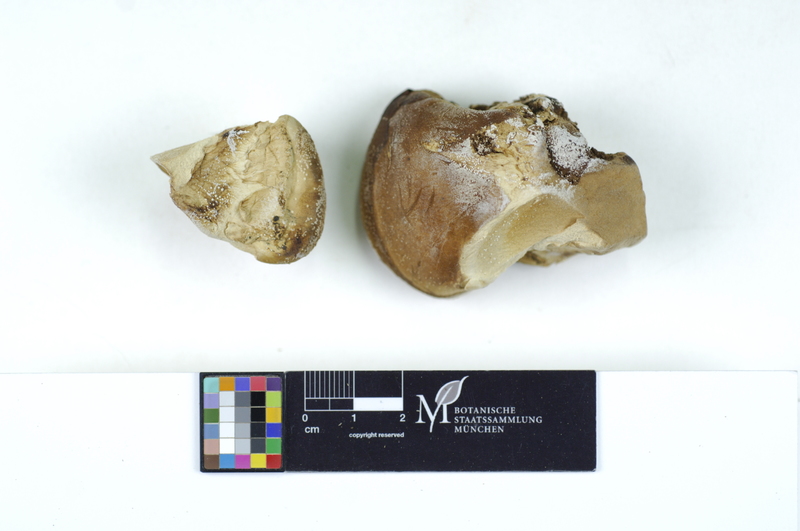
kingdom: Plantae
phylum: Tracheophyta
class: Magnoliopsida
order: Fagales
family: Fagaceae
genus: Quercus
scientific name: Quercus
